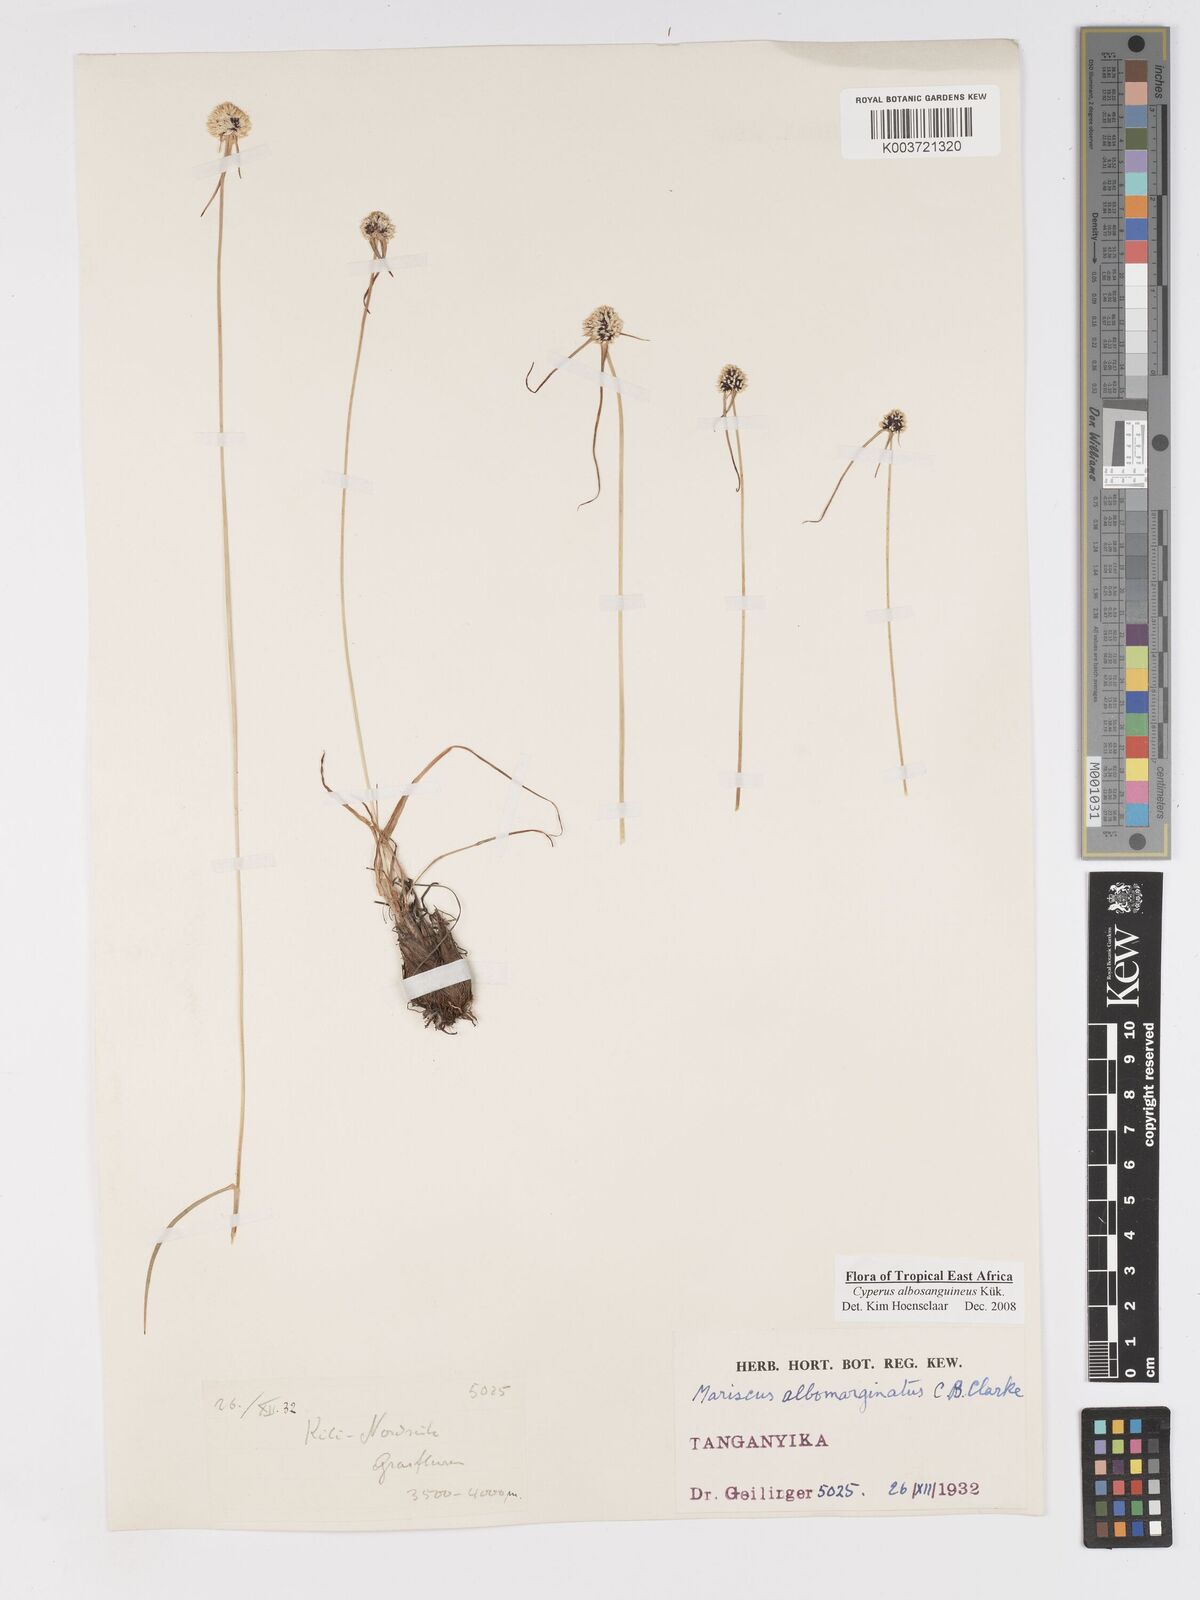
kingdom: Plantae
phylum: Tracheophyta
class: Liliopsida
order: Poales
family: Cyperaceae
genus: Cyperus
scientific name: Cyperus albosanguineus
